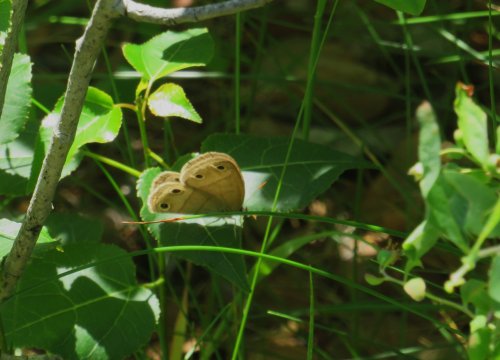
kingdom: Animalia
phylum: Arthropoda
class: Insecta
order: Lepidoptera
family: Nymphalidae
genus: Euptychia
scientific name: Euptychia cymela
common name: Little Wood Satyr
